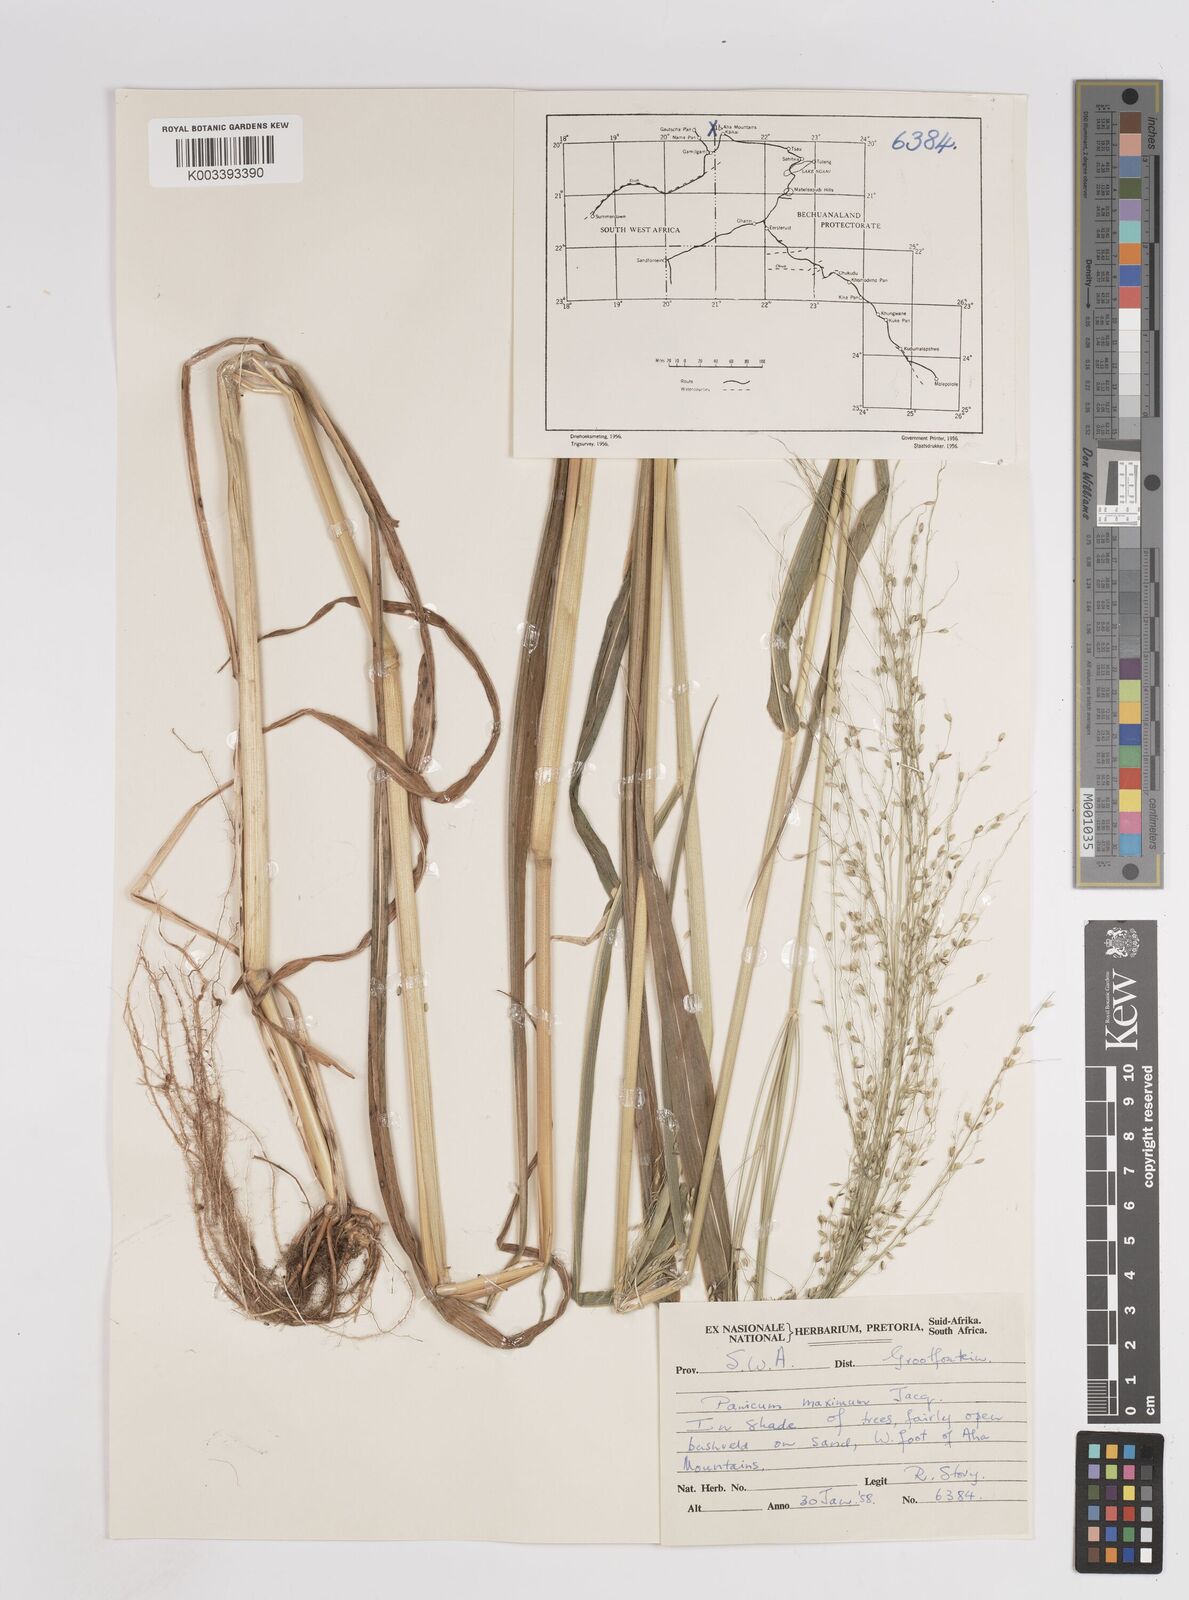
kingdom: Plantae
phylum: Tracheophyta
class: Liliopsida
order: Poales
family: Poaceae
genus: Megathyrsus
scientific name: Megathyrsus maximus
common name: Guineagrass
